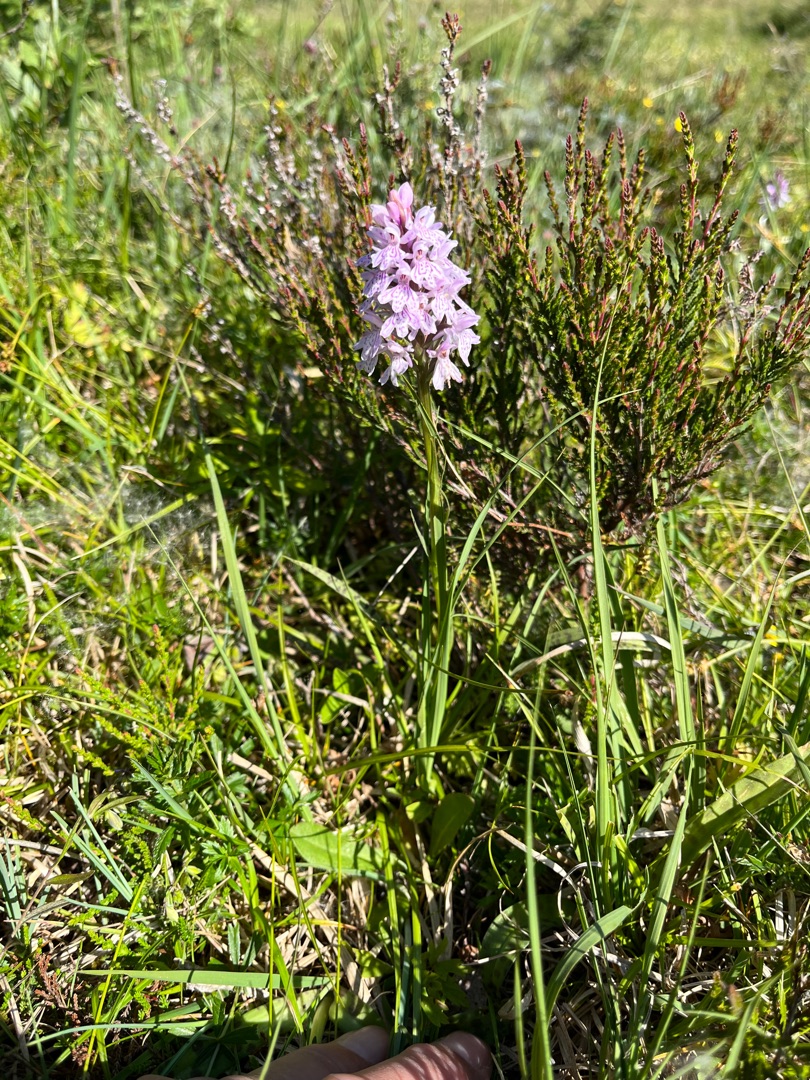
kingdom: Plantae
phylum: Tracheophyta
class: Liliopsida
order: Asparagales
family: Orchidaceae
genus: Dactylorhiza
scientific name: Dactylorhiza maculata
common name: Plettet gøgeurt
